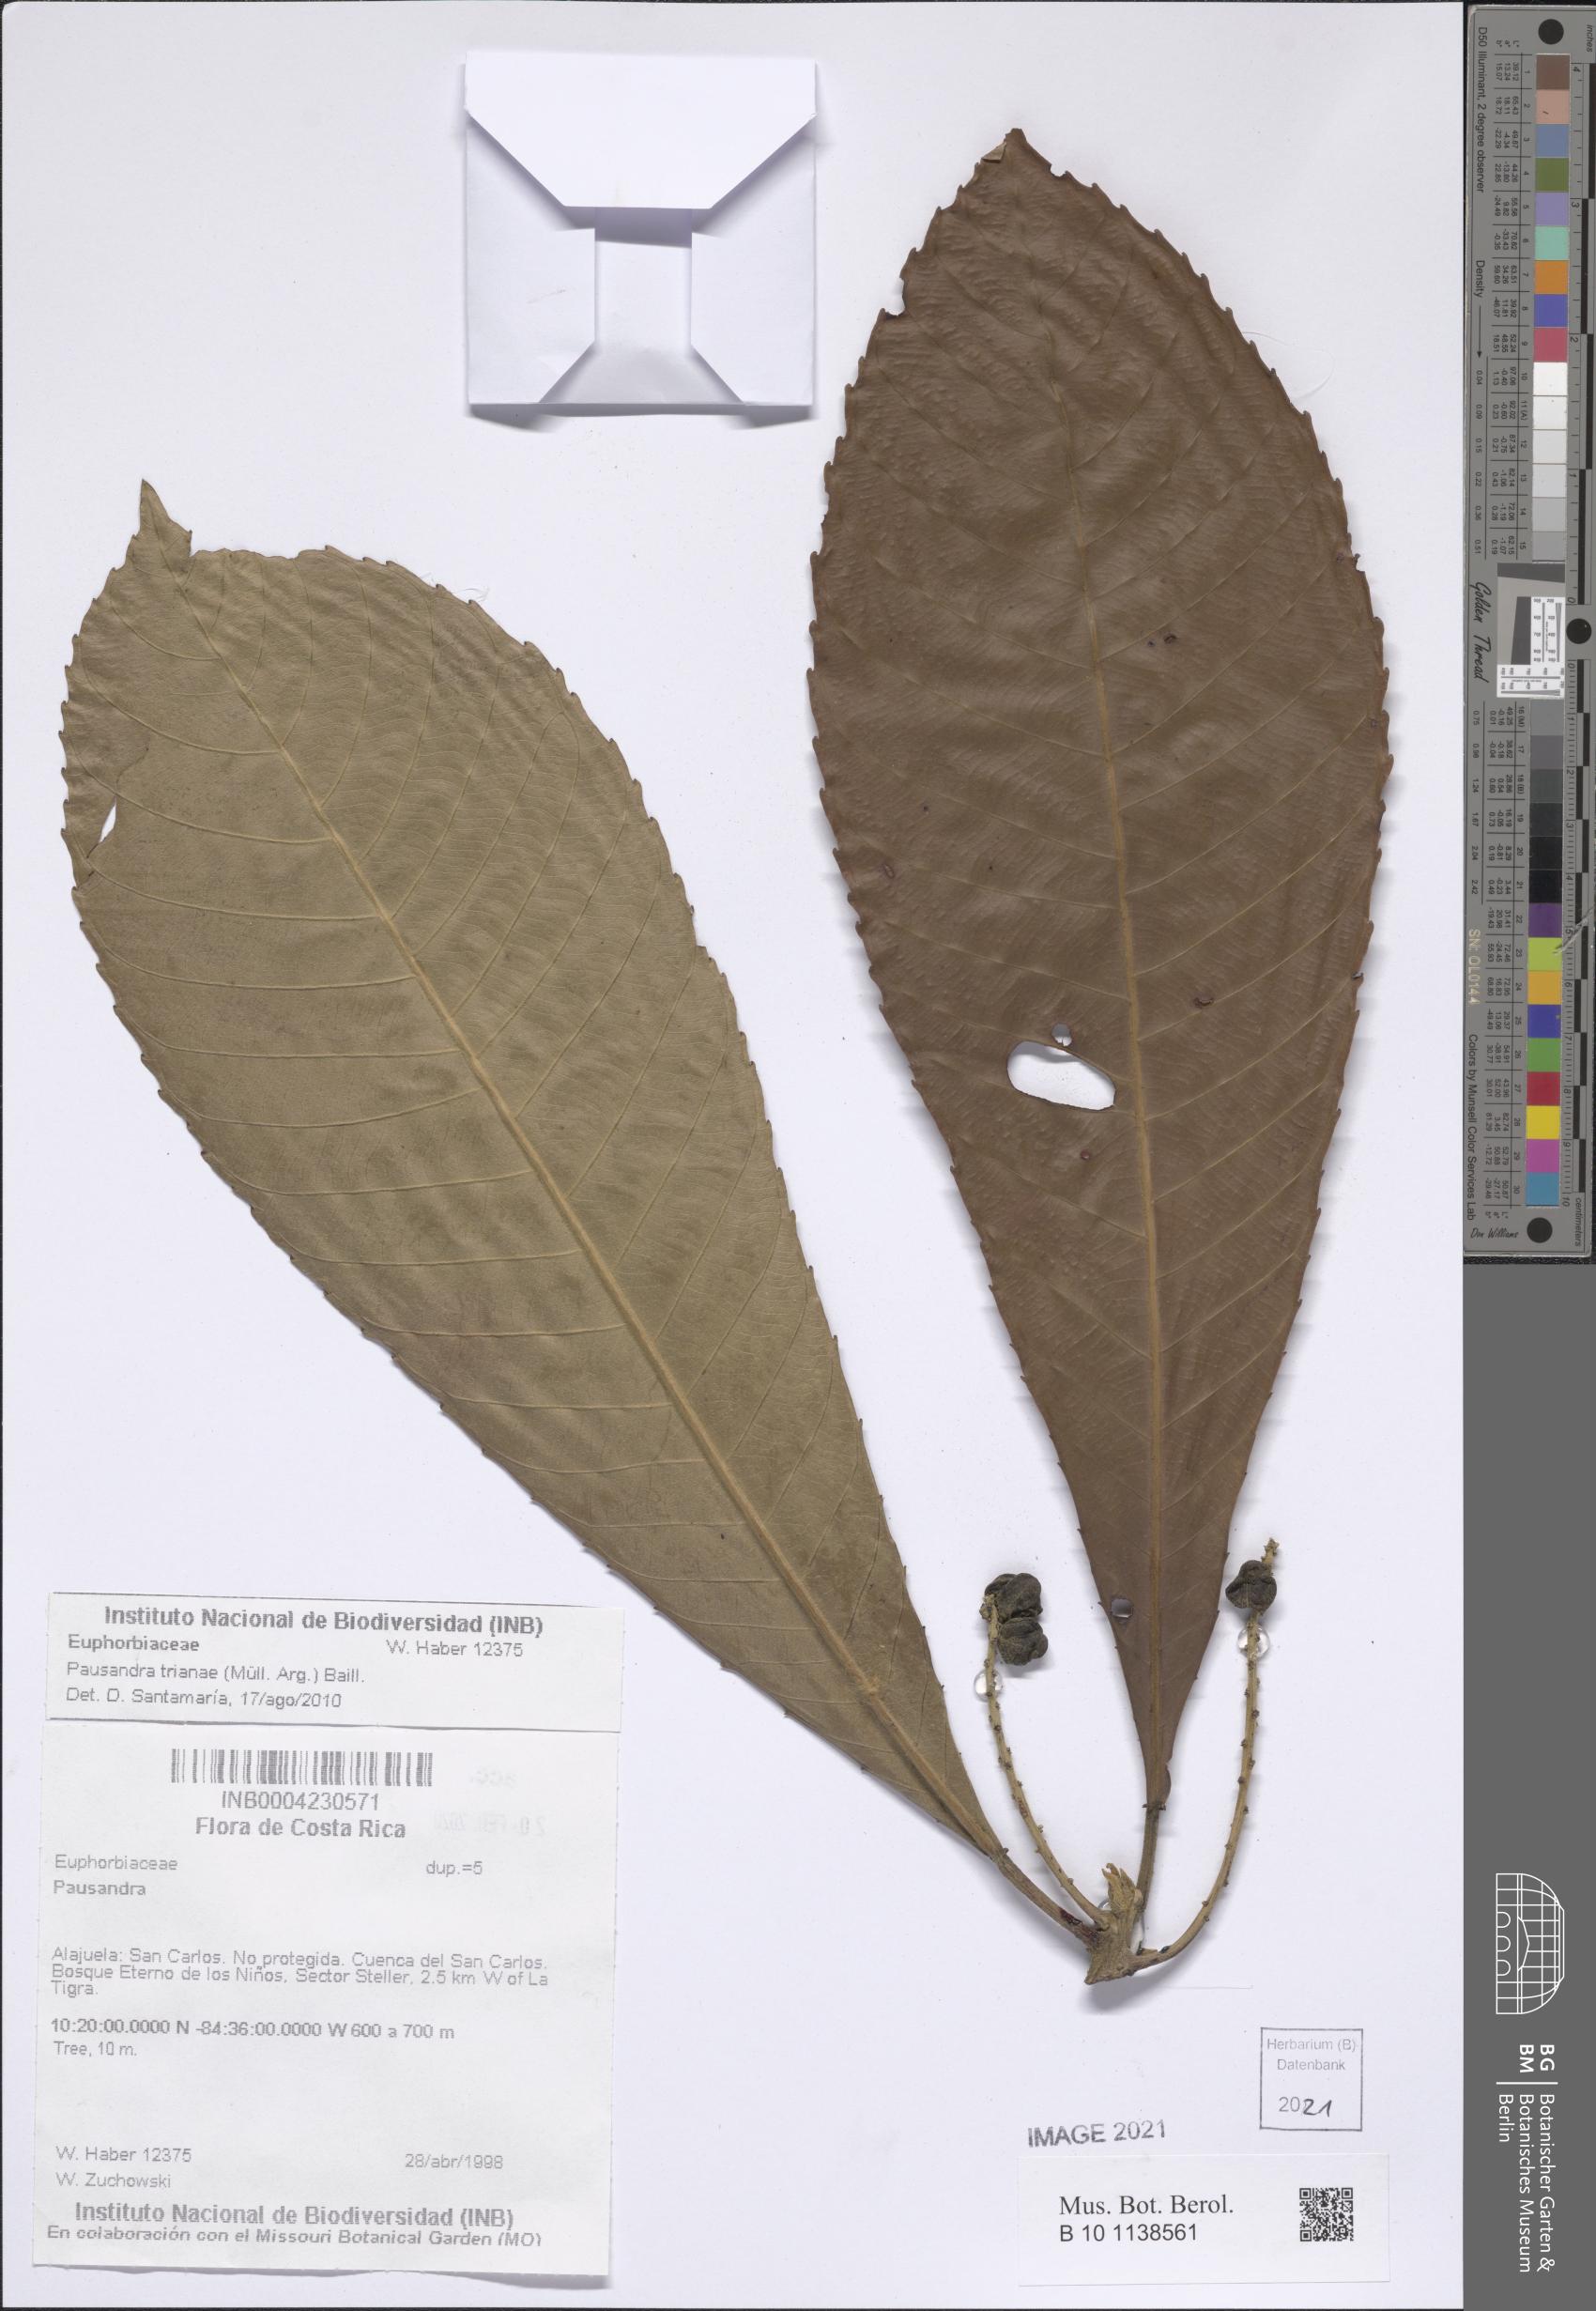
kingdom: Plantae
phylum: Tracheophyta
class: Magnoliopsida
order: Malpighiales
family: Euphorbiaceae
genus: Pausandra
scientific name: Pausandra trianae
